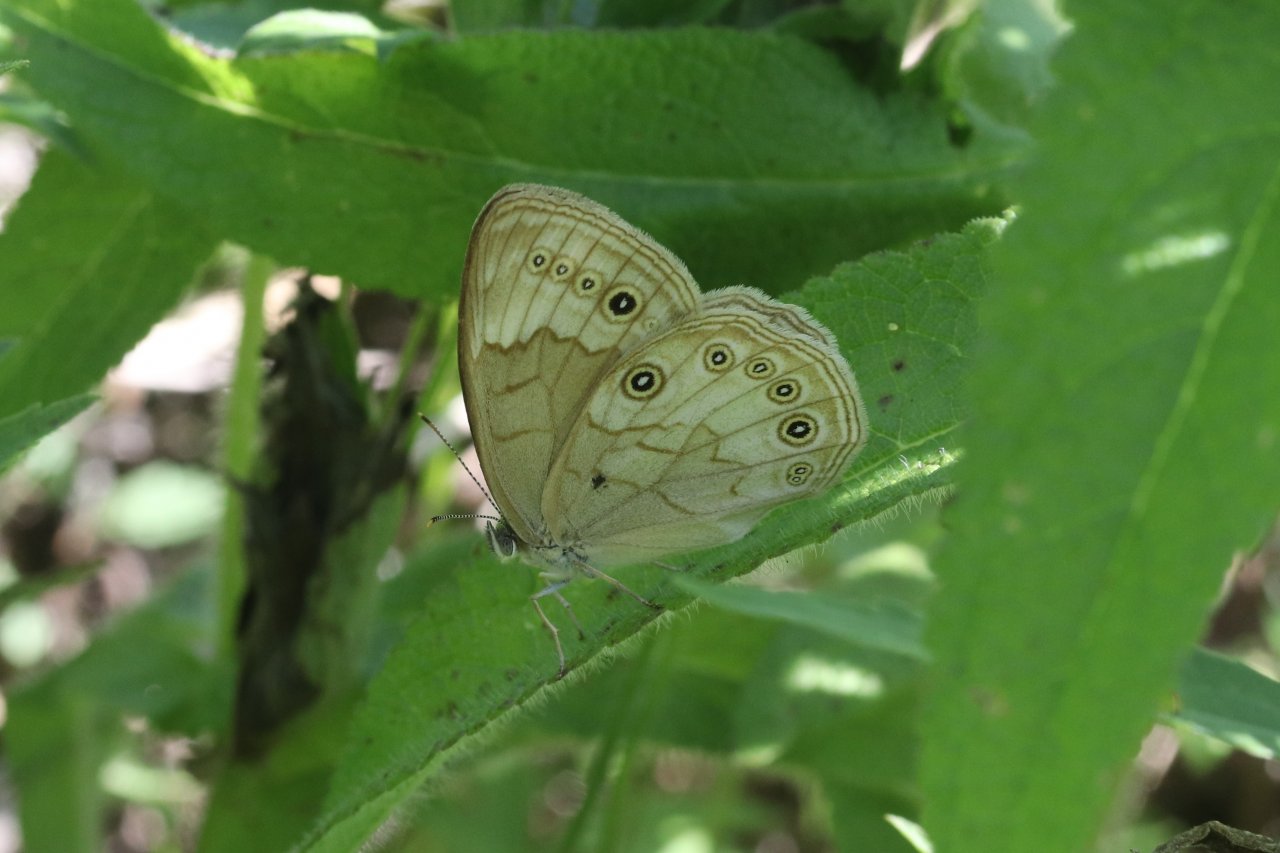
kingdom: Animalia
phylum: Arthropoda
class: Insecta
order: Lepidoptera
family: Nymphalidae
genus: Lethe
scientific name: Lethe eurydice
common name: Eyed Brown
